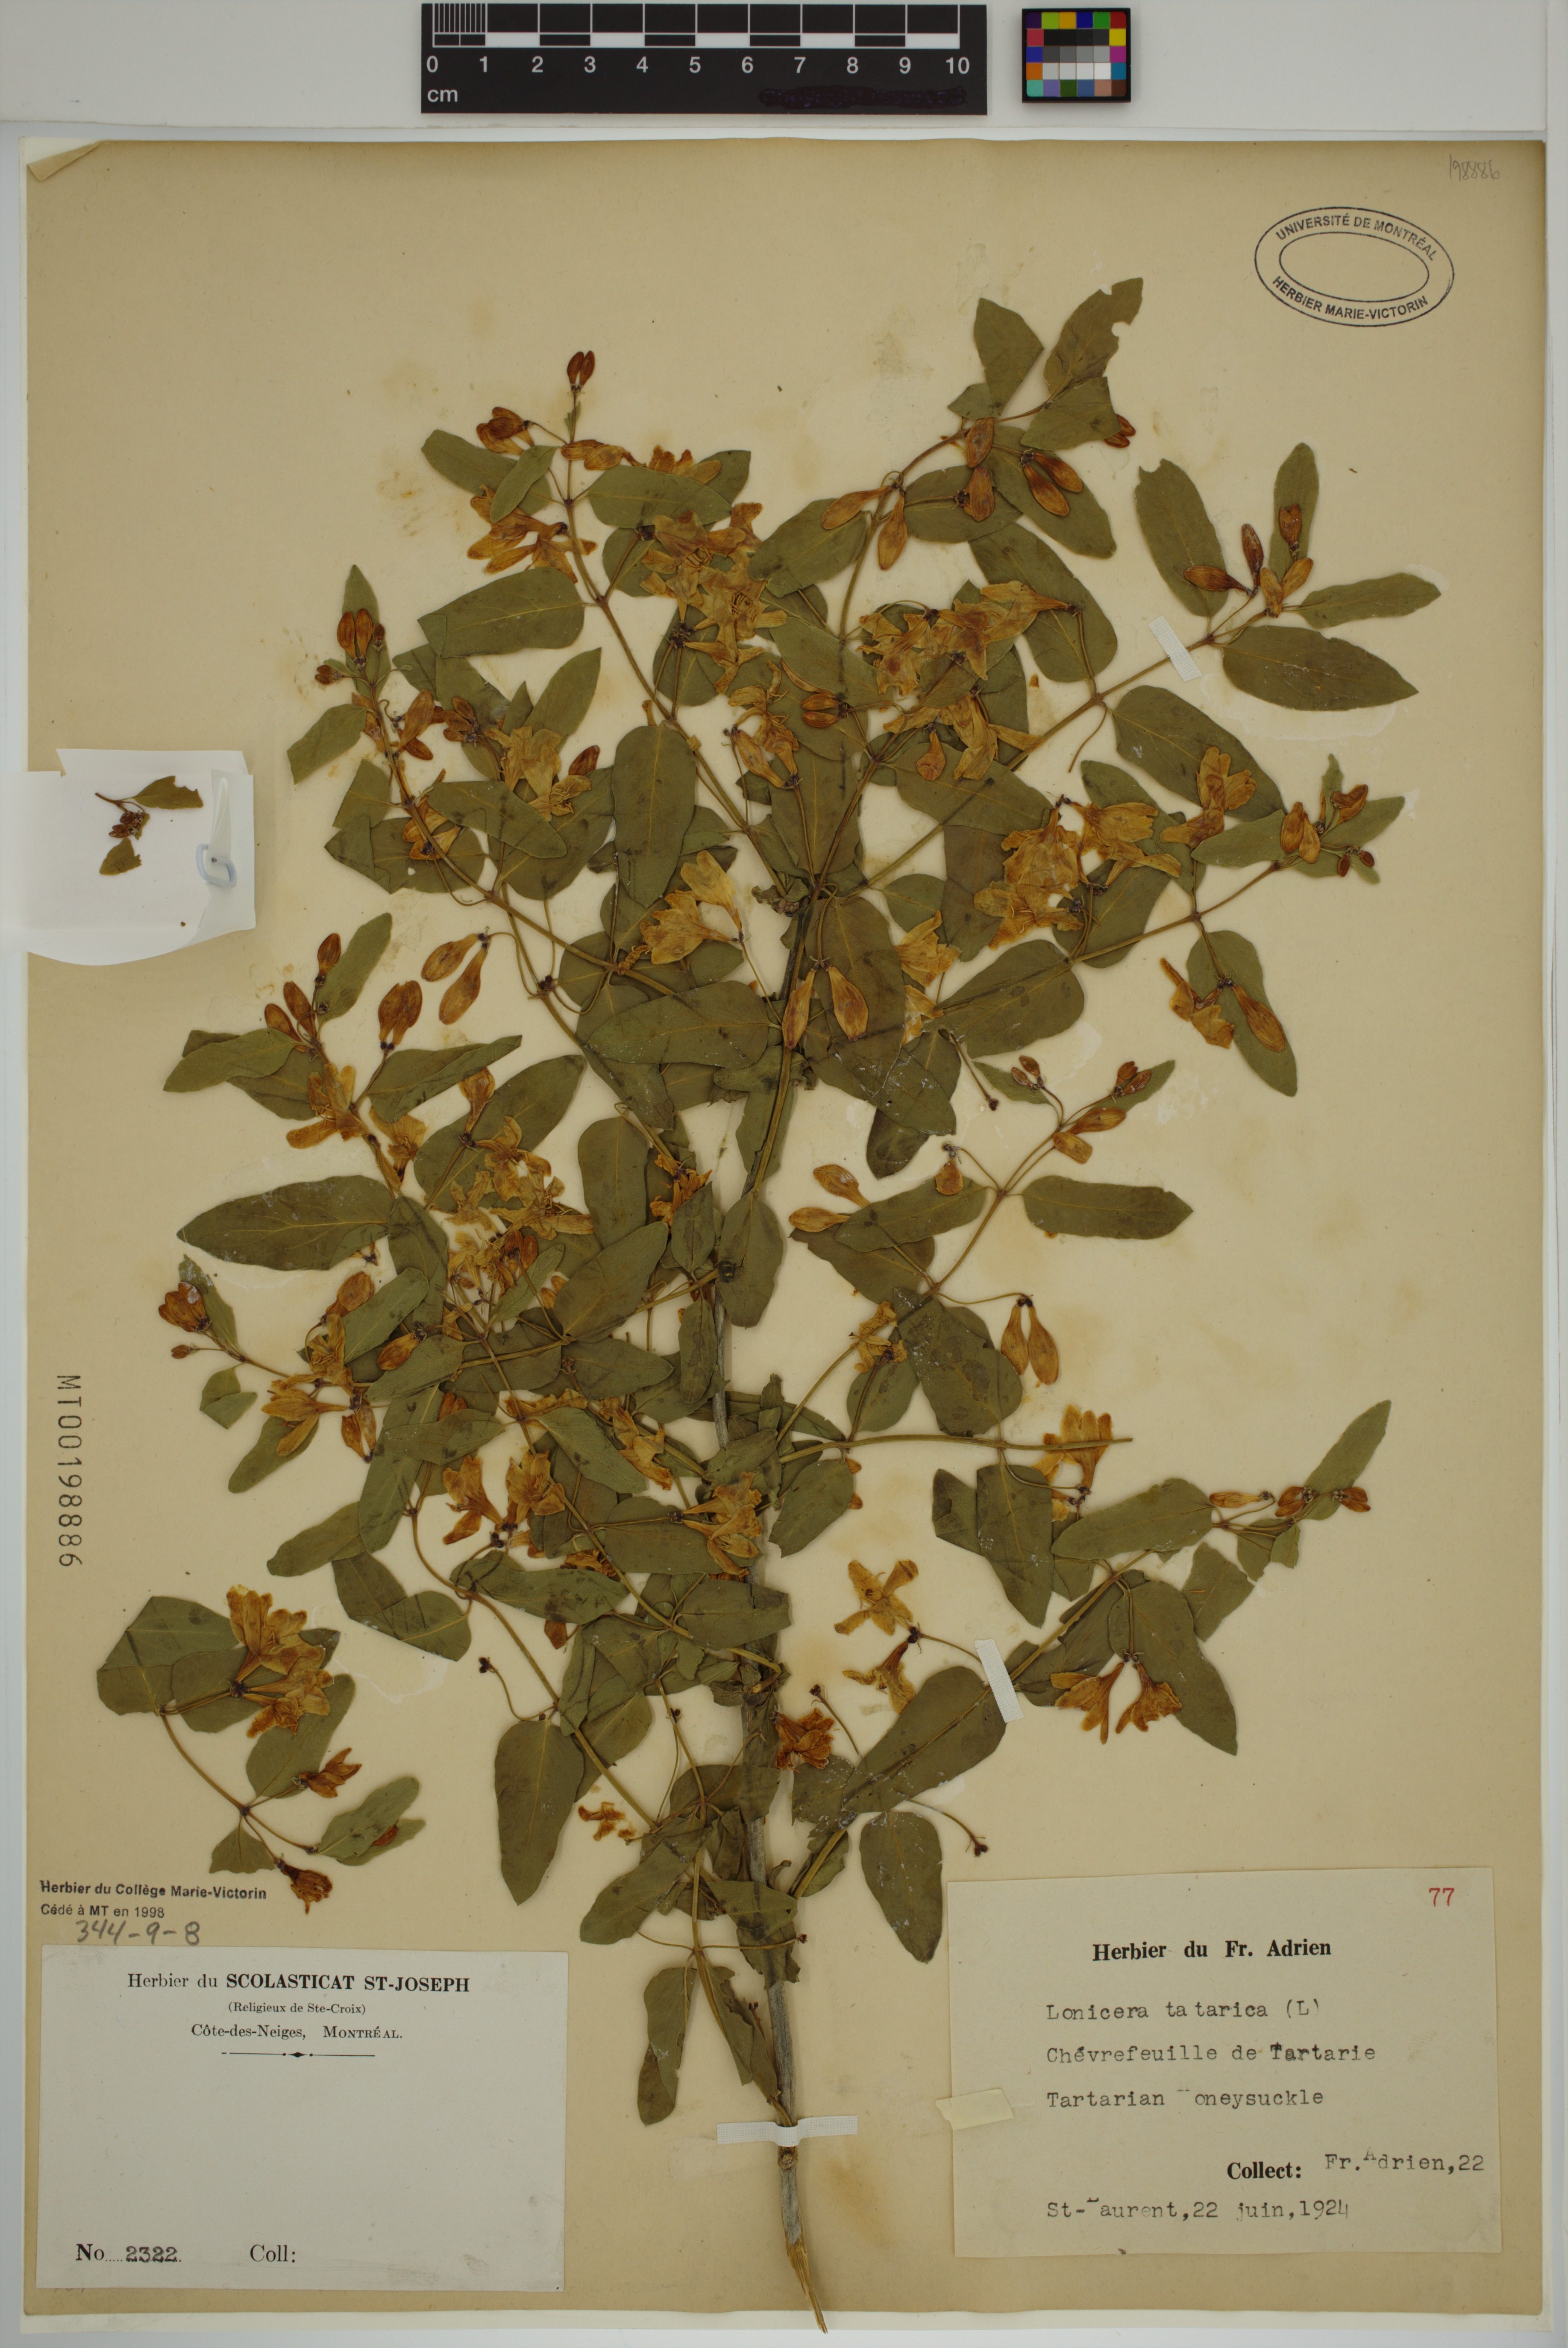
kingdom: Plantae
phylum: Tracheophyta
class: Magnoliopsida
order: Dipsacales
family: Caprifoliaceae
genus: Lonicera
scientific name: Lonicera tatarica
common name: Tatarian honeysuckle
